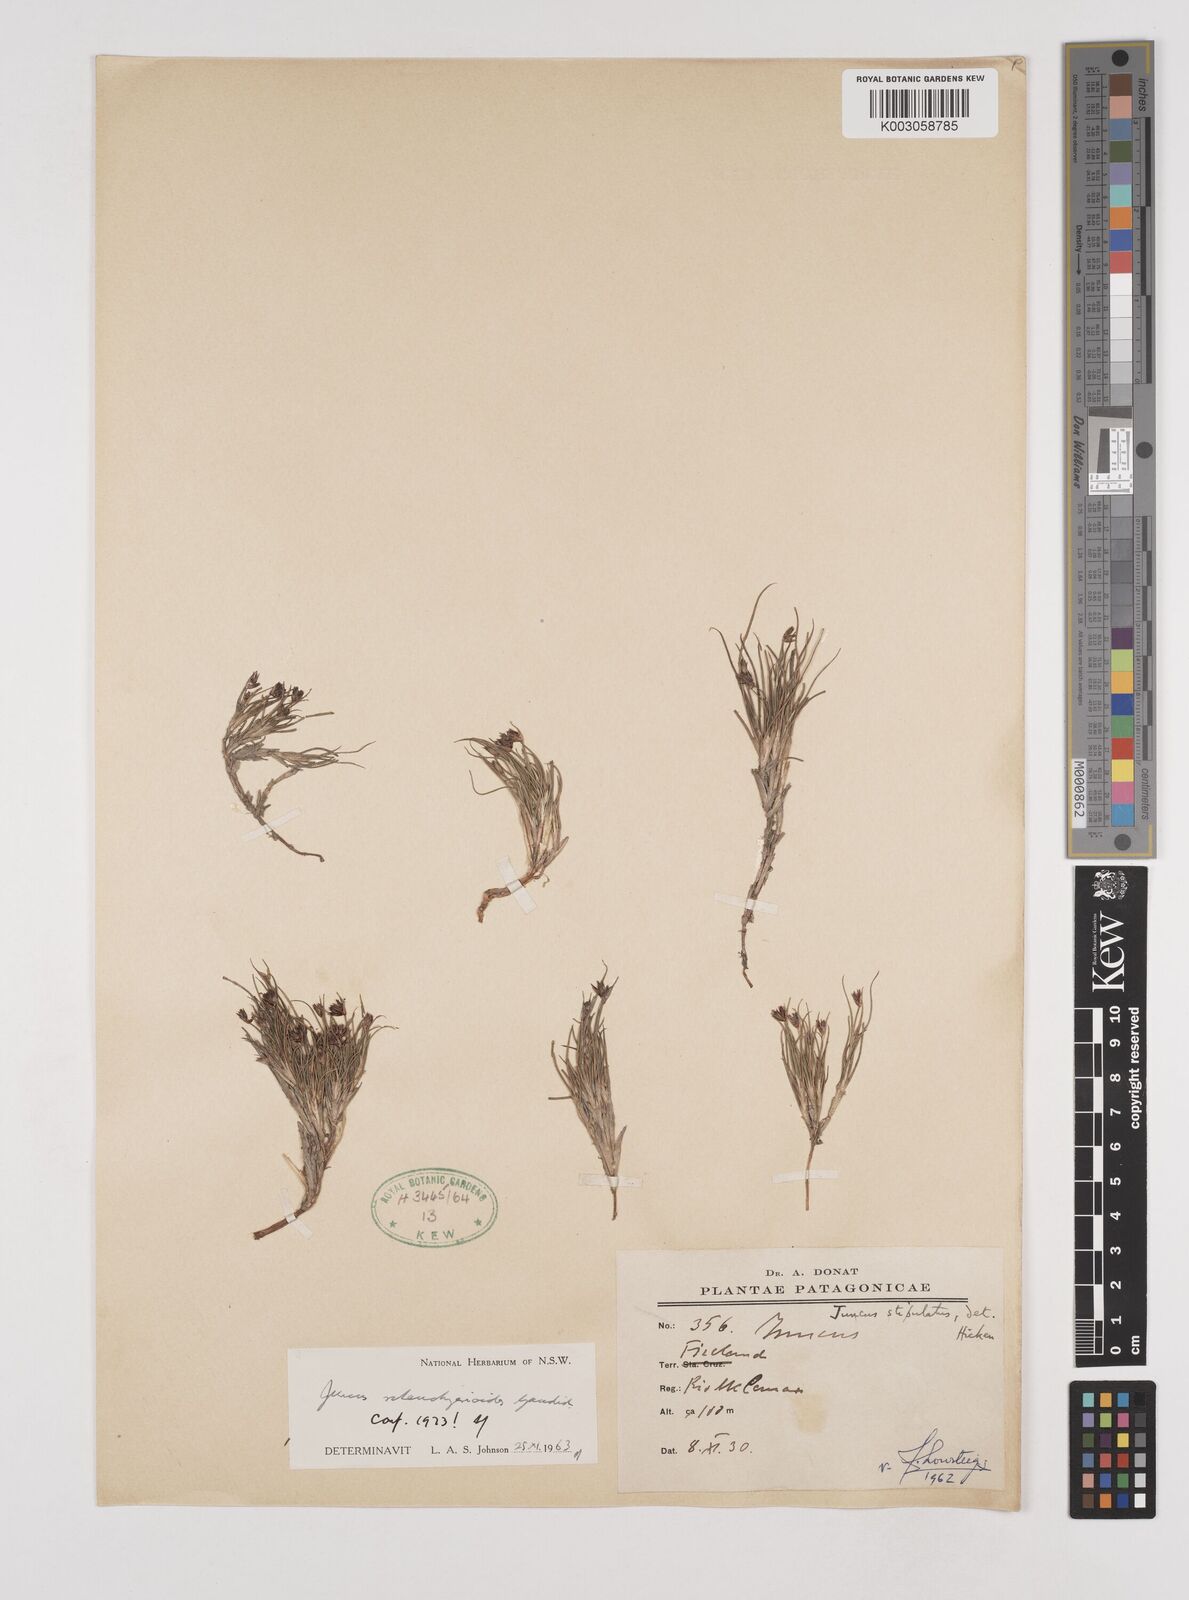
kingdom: Plantae
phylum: Tracheophyta
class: Liliopsida
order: Poales
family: Juncaceae
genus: Juncus
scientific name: Juncus scheuchzerioides
